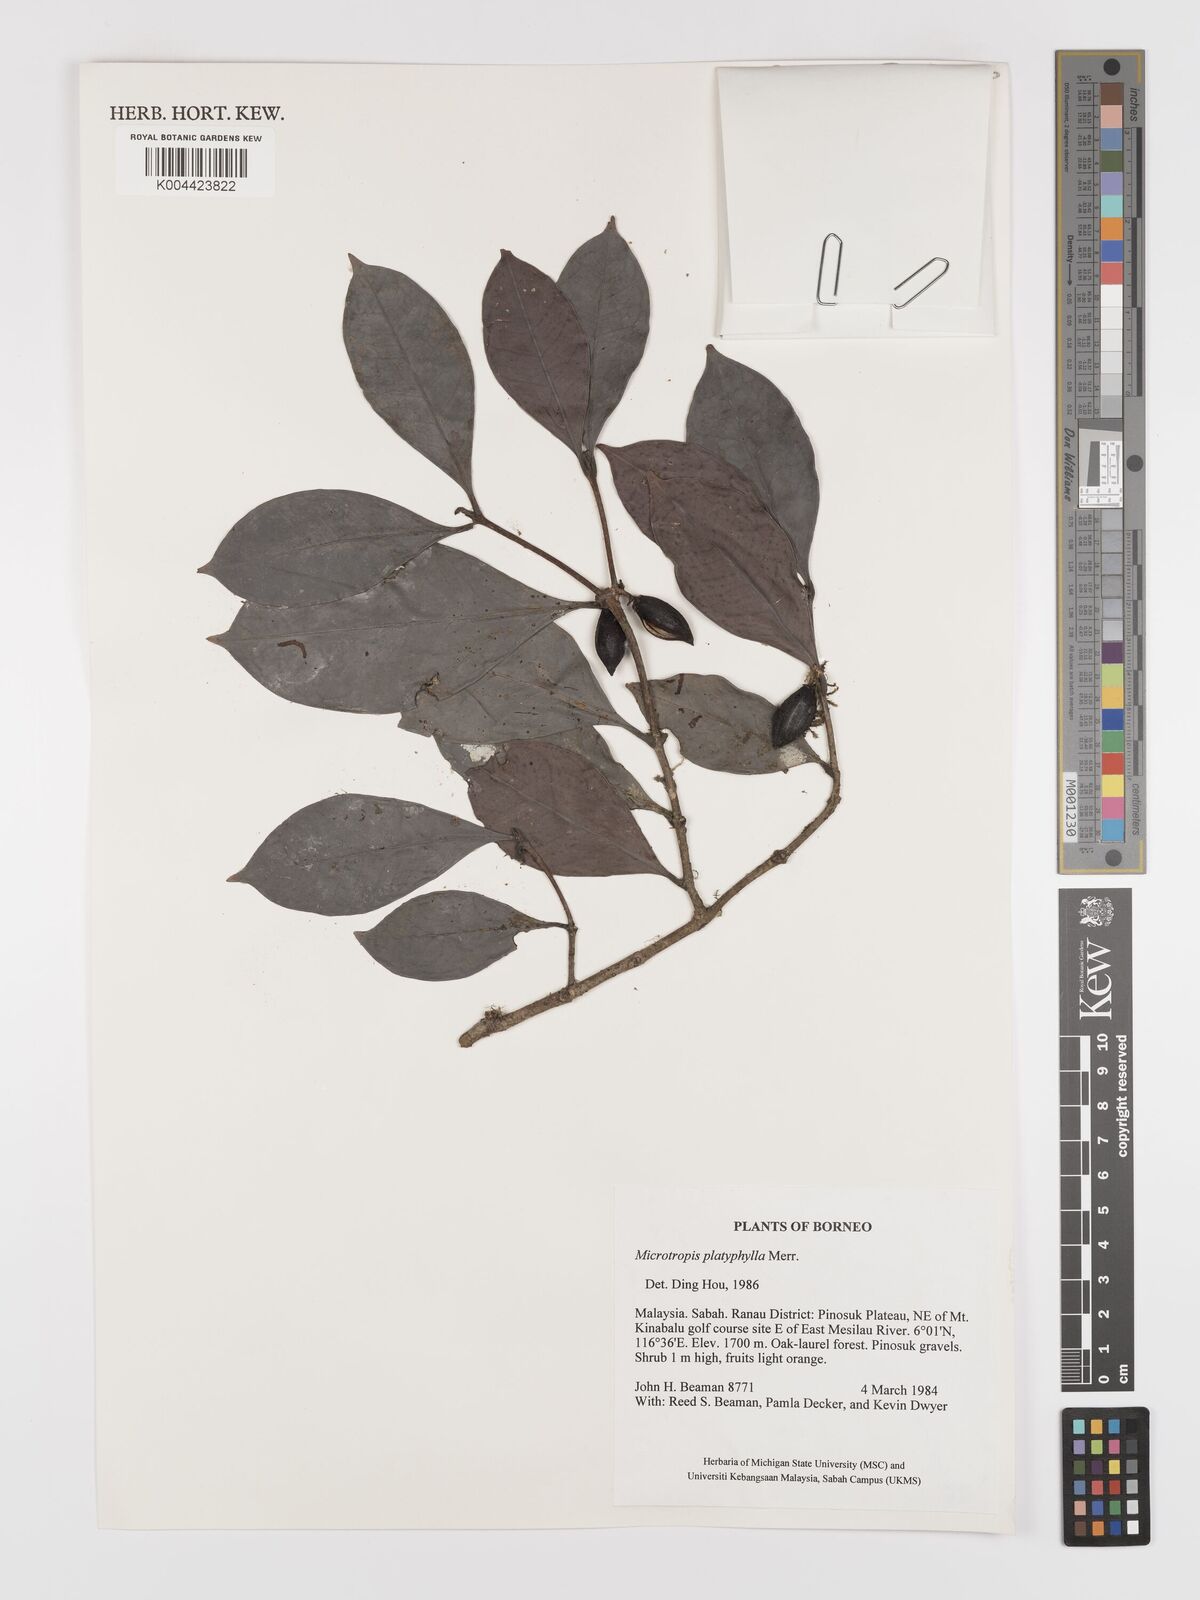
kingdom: Plantae
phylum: Tracheophyta
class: Magnoliopsida
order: Celastrales
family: Celastraceae
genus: Microtropis
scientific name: Microtropis platyphylla
